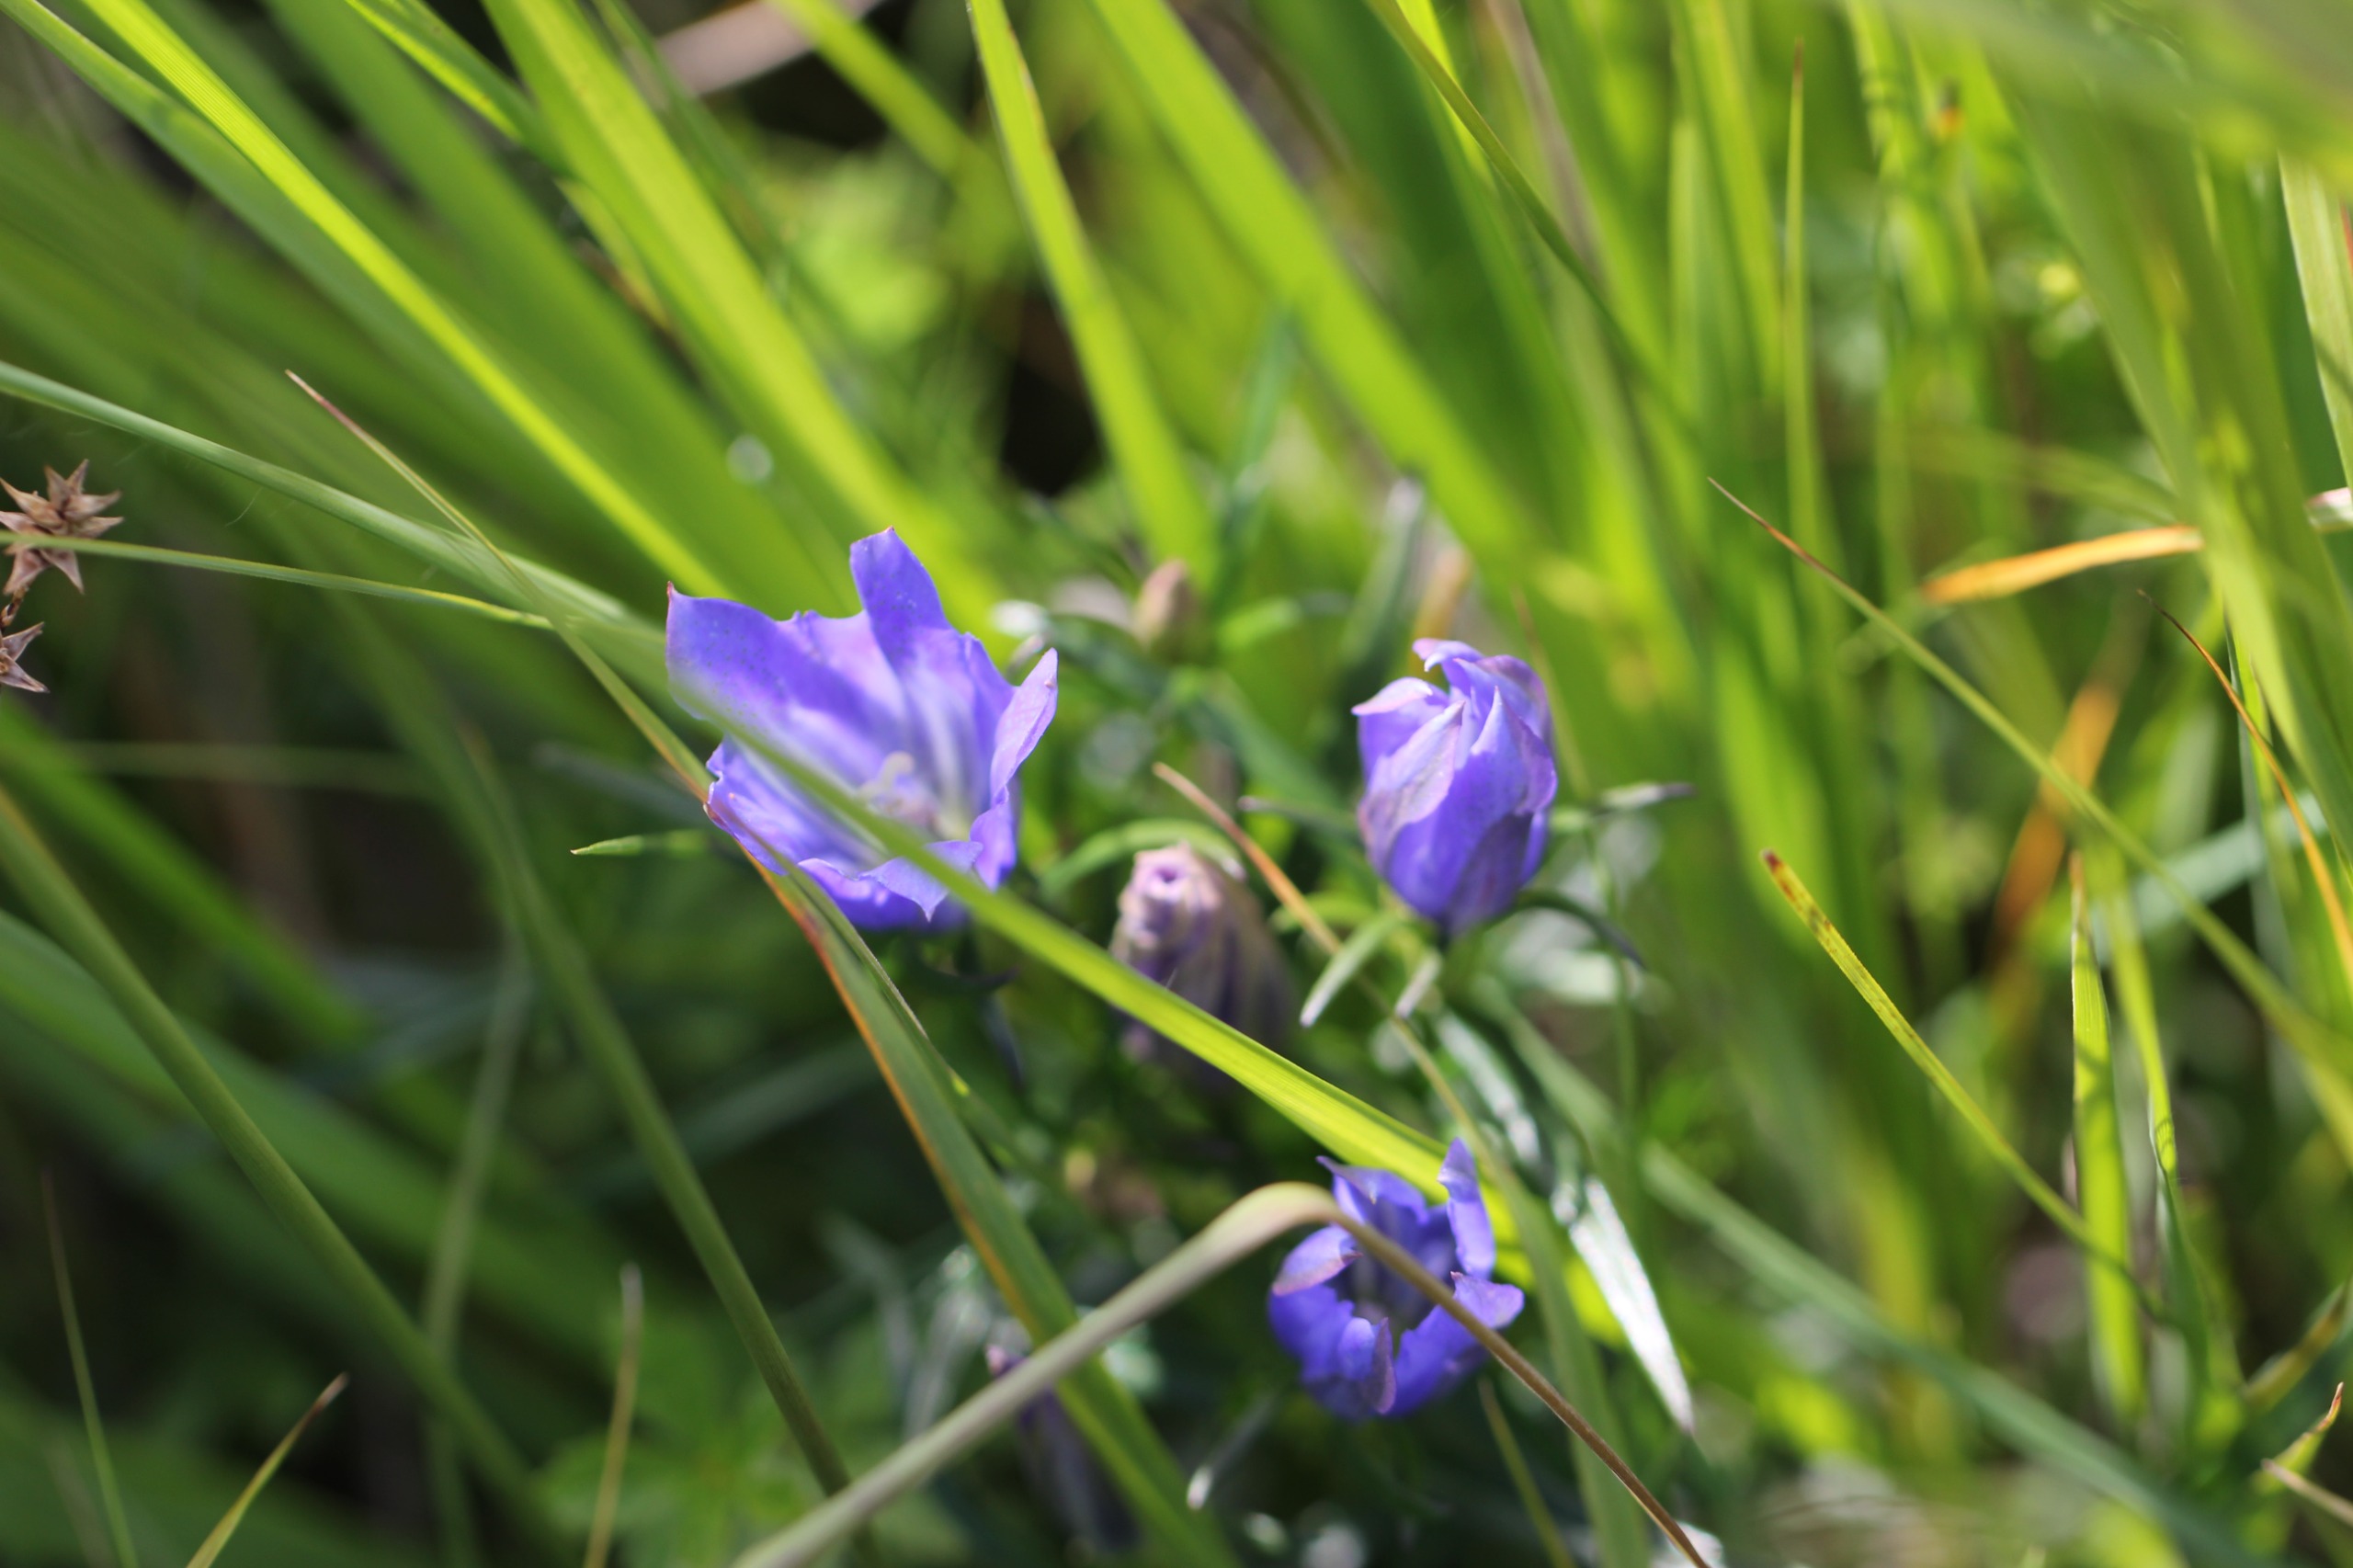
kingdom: Plantae
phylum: Tracheophyta
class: Magnoliopsida
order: Gentianales
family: Gentianaceae
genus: Gentiana
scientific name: Gentiana pneumonanthe
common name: Klokke-ensian
